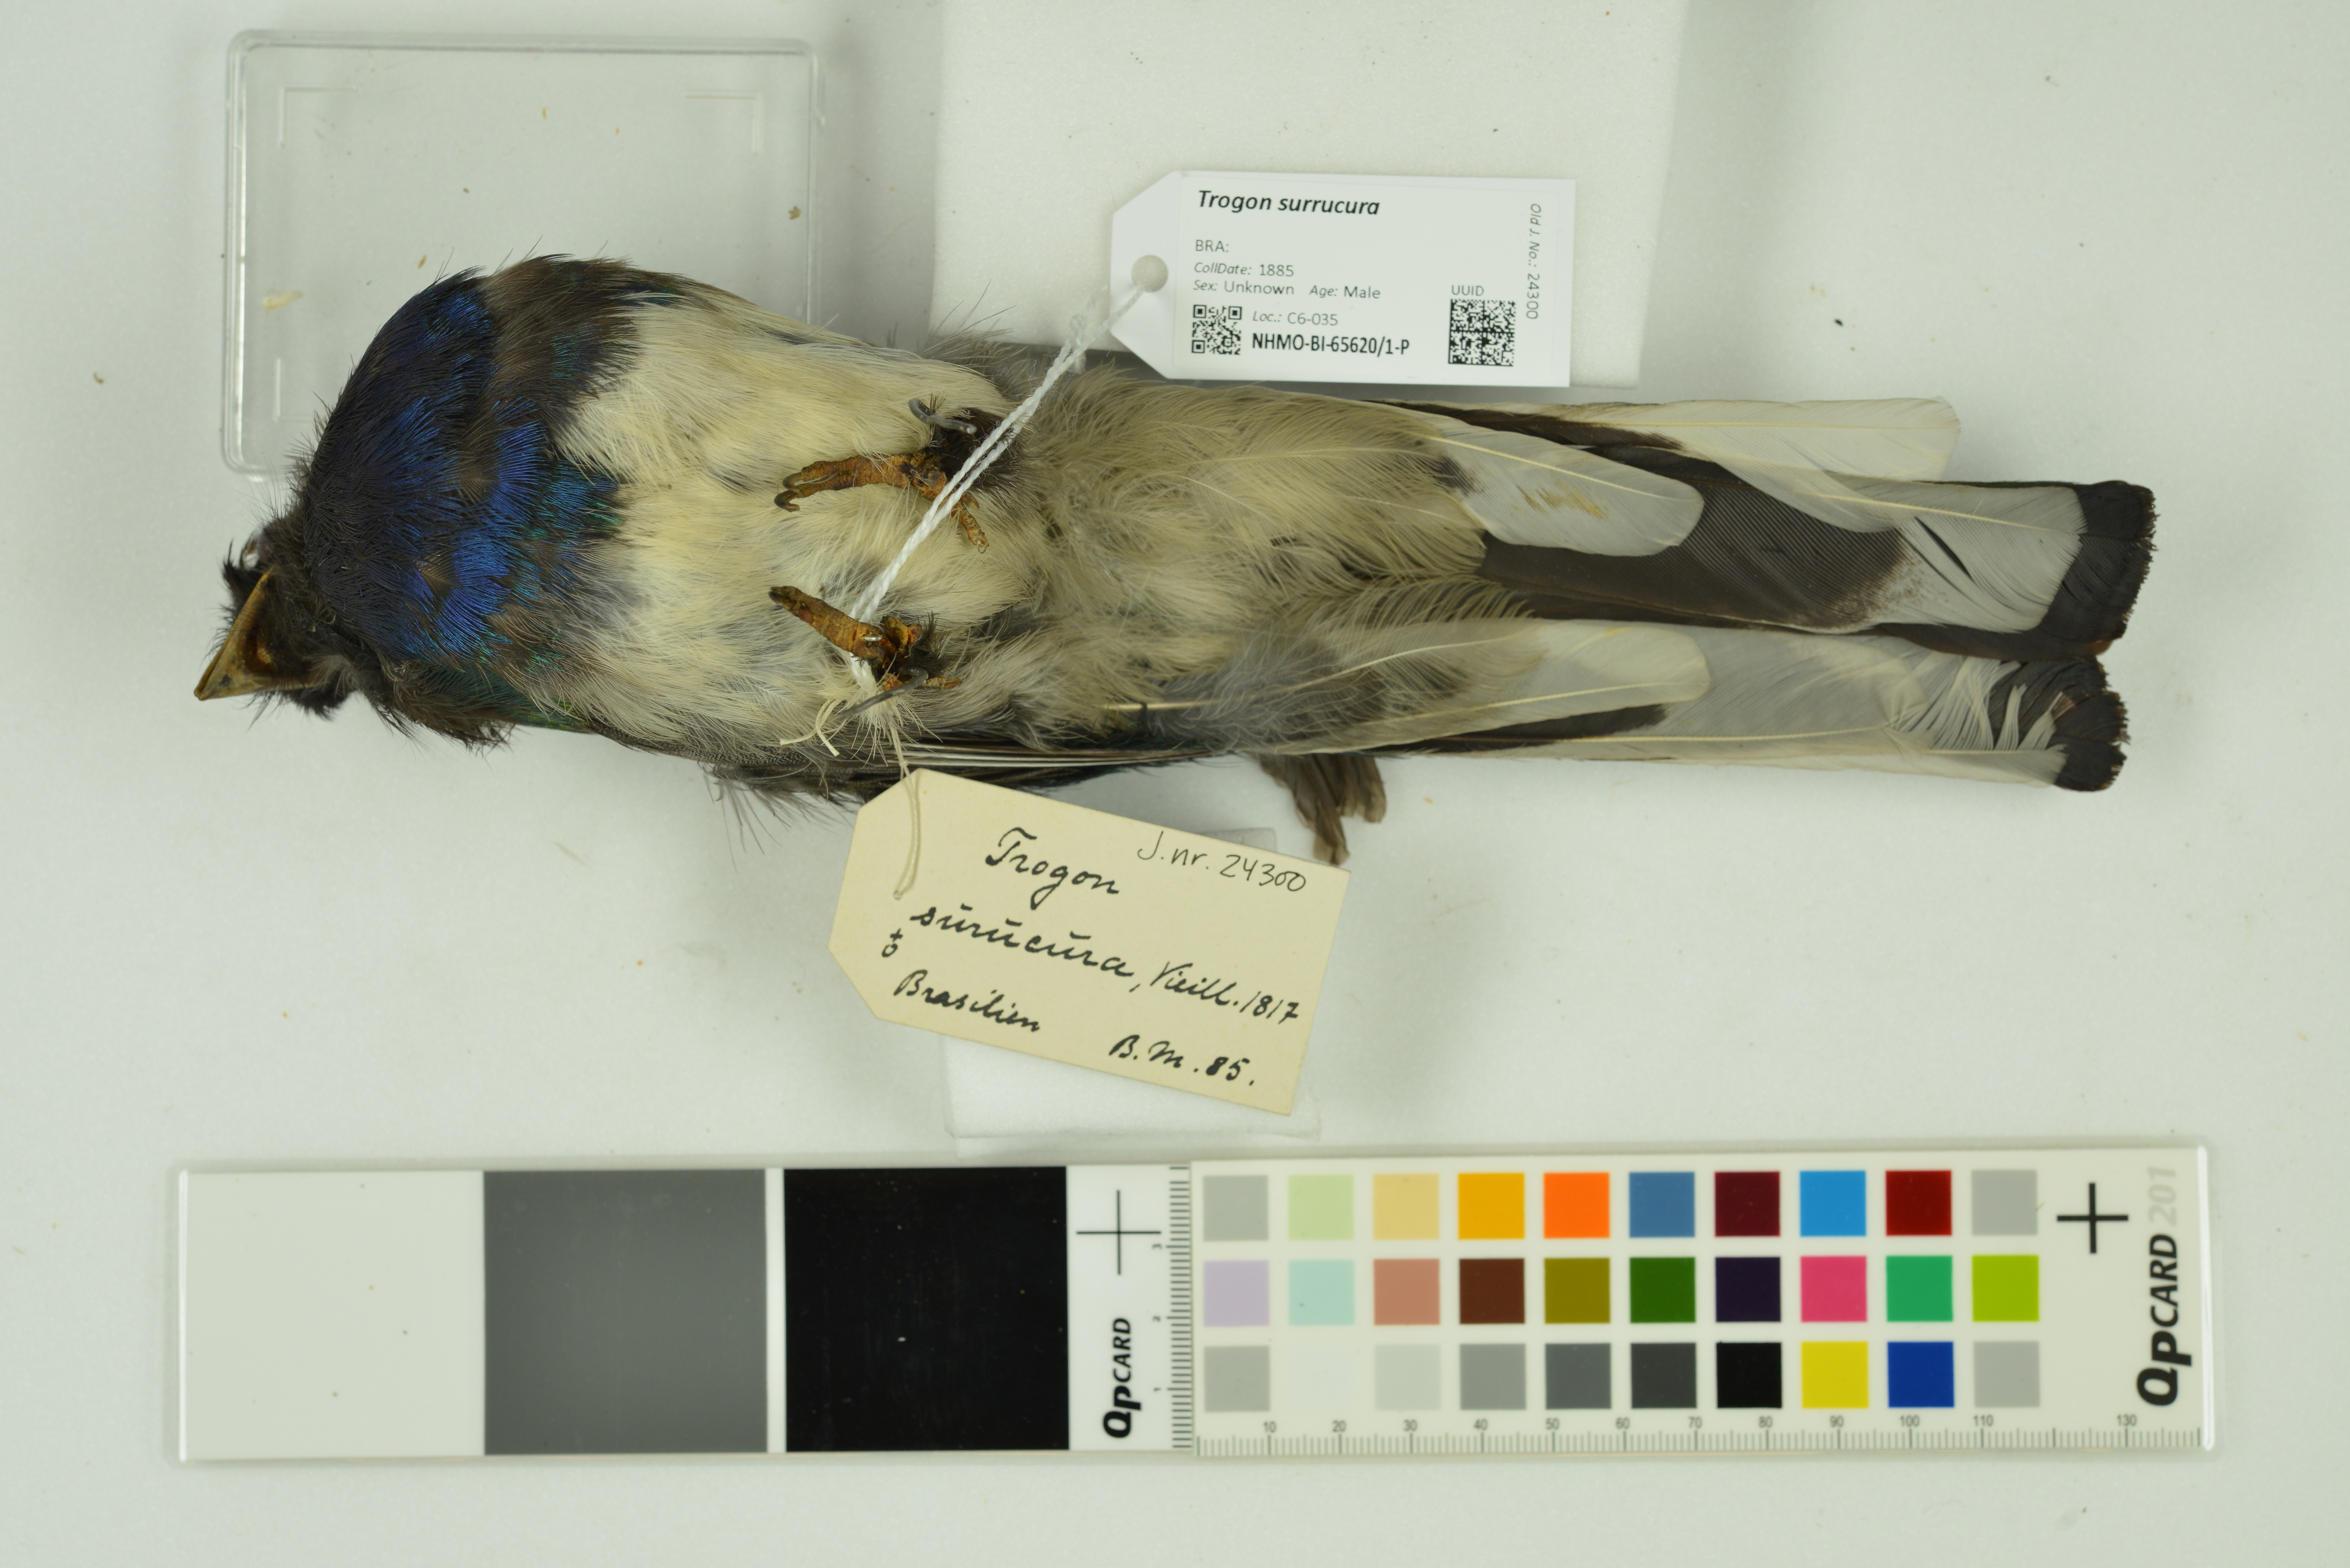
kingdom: Animalia
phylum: Chordata
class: Aves
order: Trogoniformes
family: Trogonidae
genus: Trogon
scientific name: Trogon surrucura
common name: Surucua trogon
